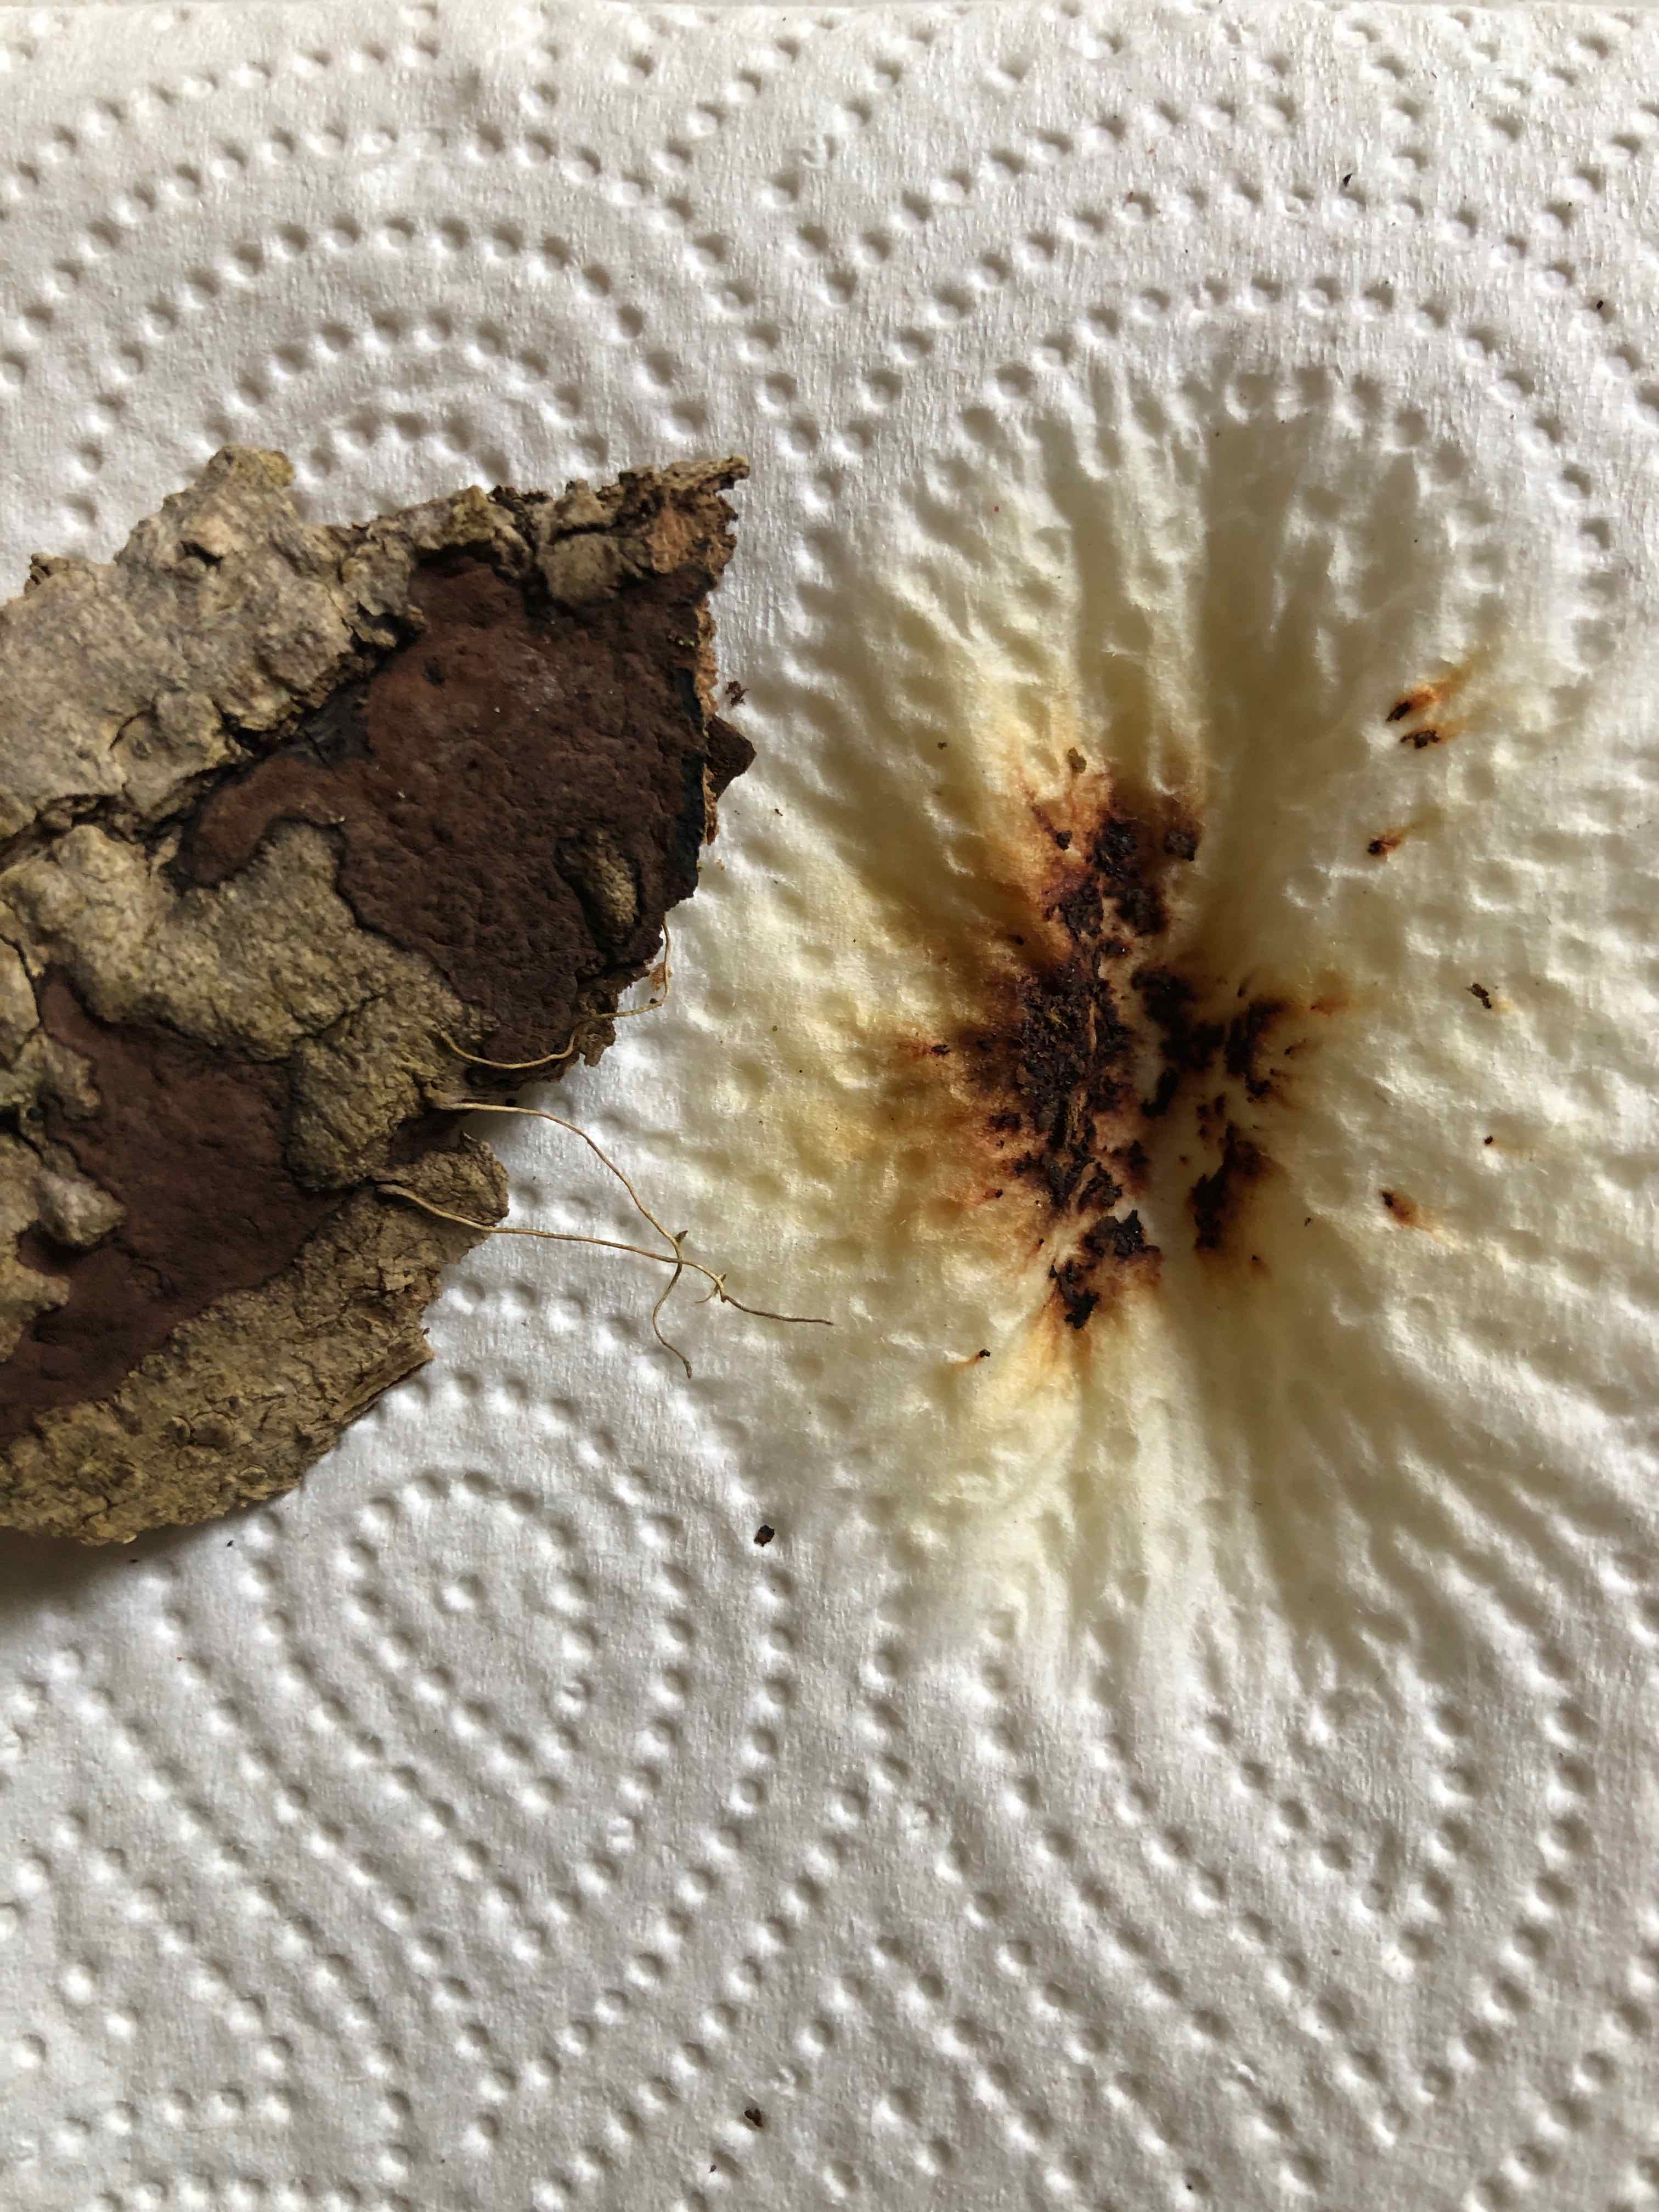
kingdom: Fungi
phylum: Ascomycota
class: Sordariomycetes
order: Xylariales
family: Hypoxylaceae
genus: Hypoxylon
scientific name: Hypoxylon petriniae
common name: nedsænket kulbær
